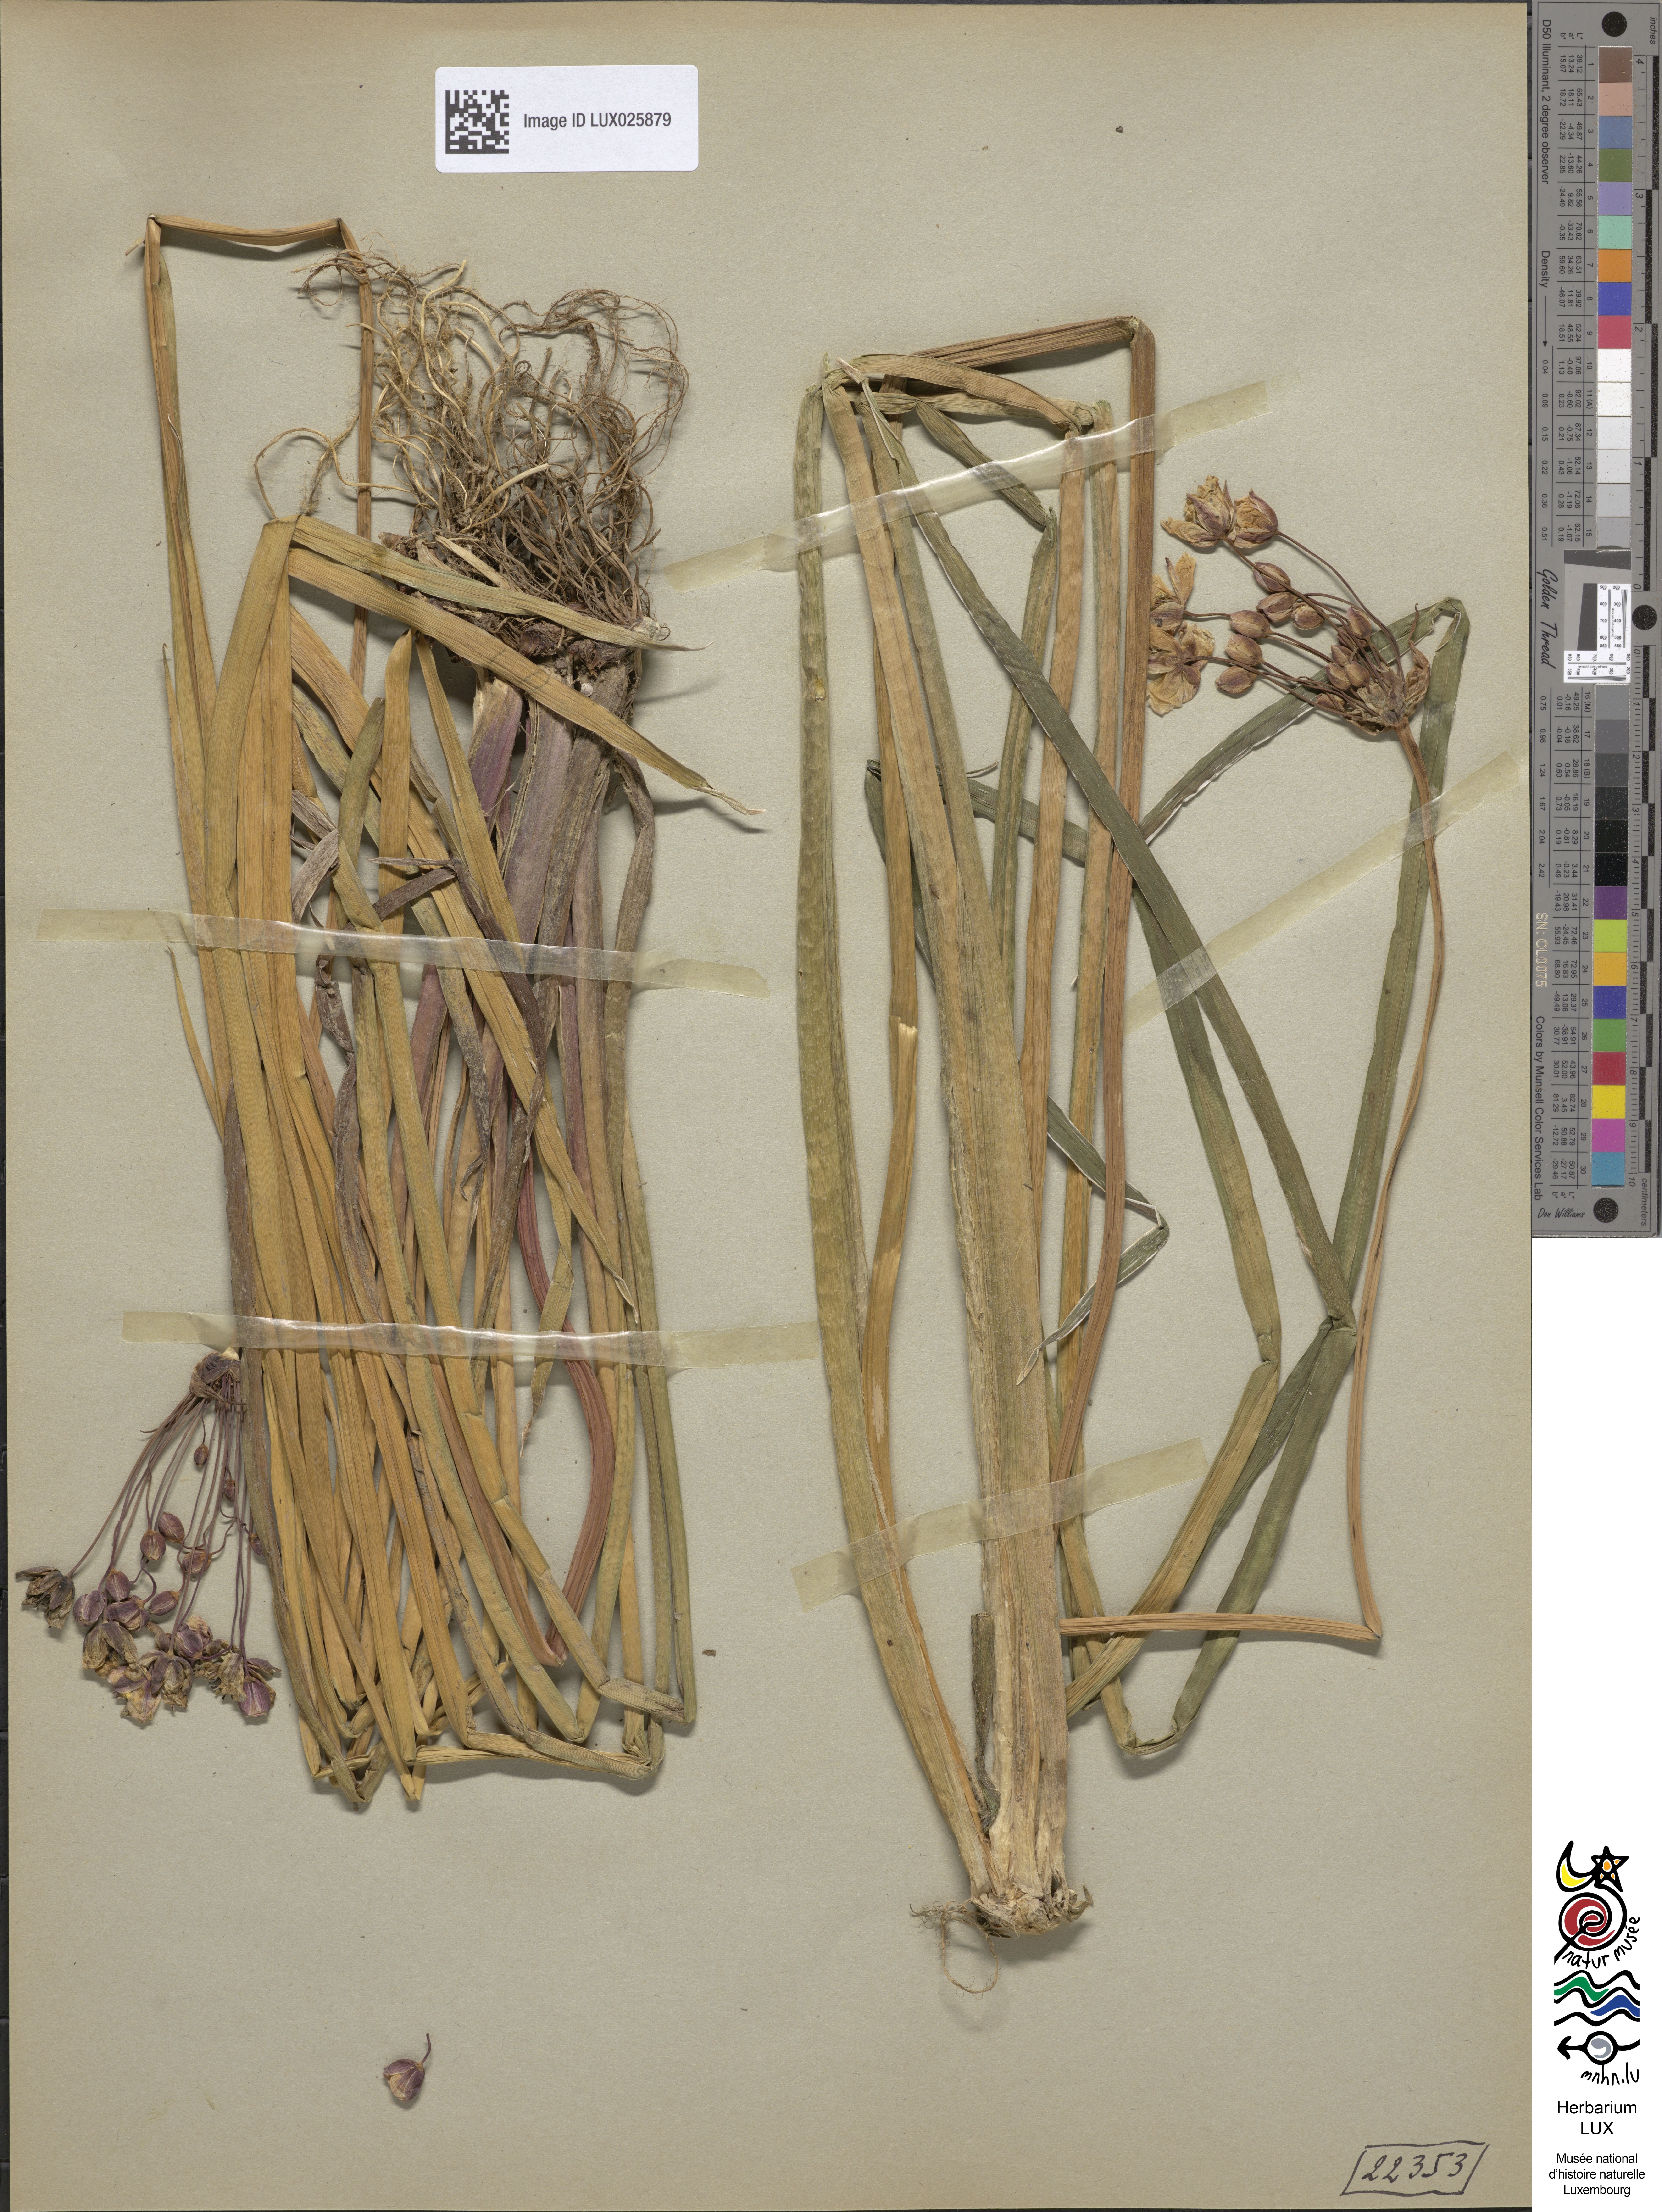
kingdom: Plantae
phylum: Tracheophyta
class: Liliopsida
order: Alismatales
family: Butomaceae
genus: Butomus
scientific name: Butomus umbellatus
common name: Flowering-rush
